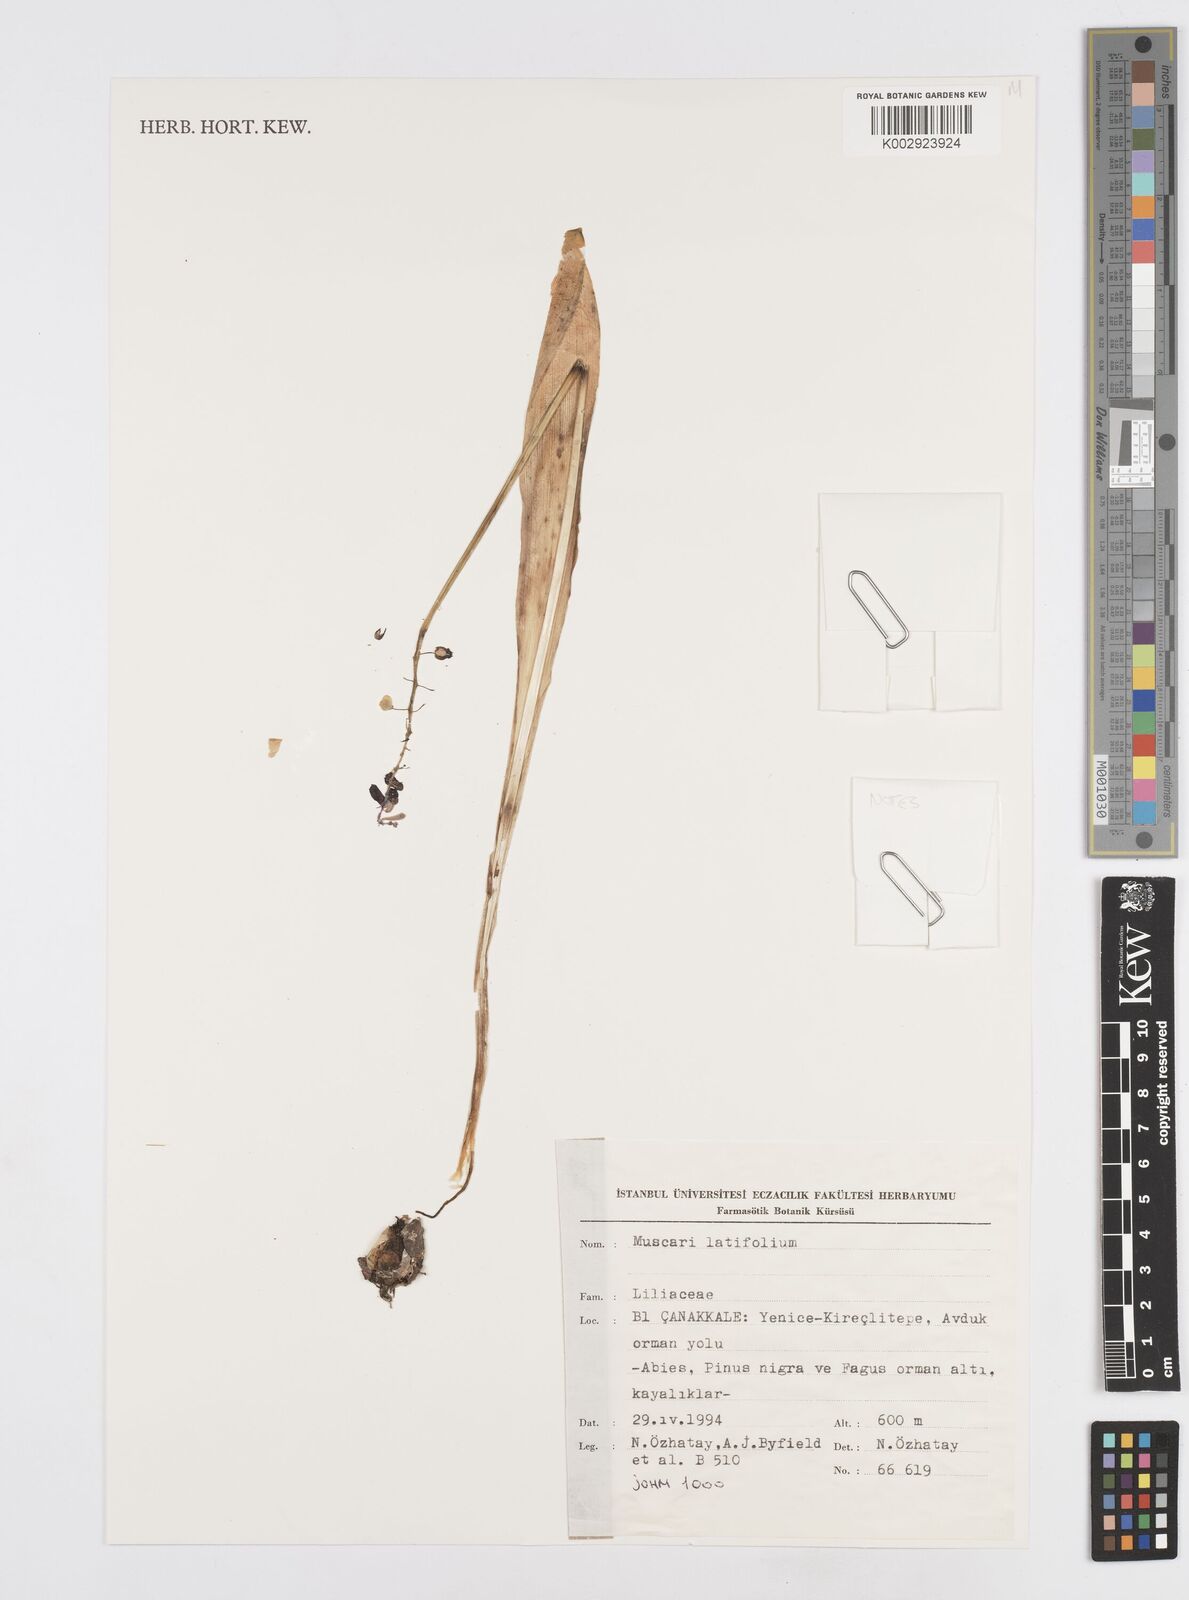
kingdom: Plantae
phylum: Tracheophyta
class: Liliopsida
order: Asparagales
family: Asparagaceae
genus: Muscari
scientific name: Muscari latifolium
